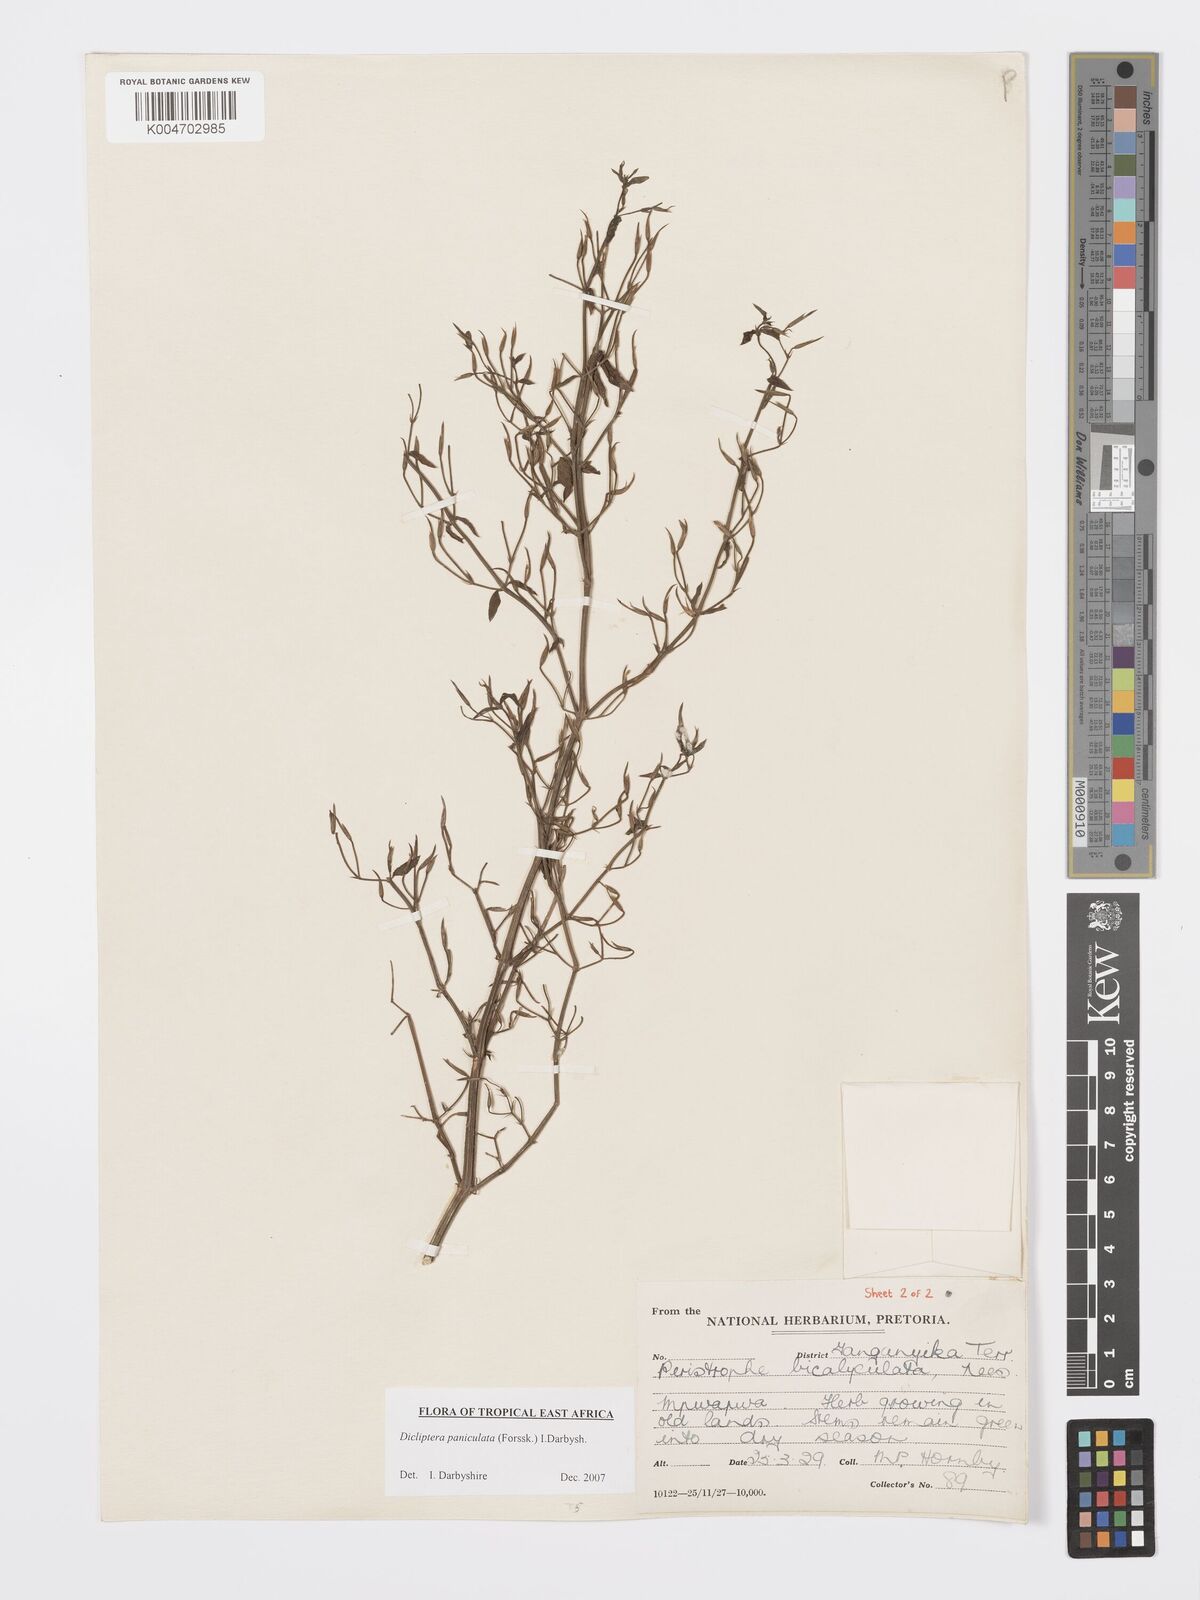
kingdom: Plantae
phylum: Tracheophyta
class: Magnoliopsida
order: Lamiales
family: Acanthaceae
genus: Dicliptera
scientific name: Dicliptera paniculata
